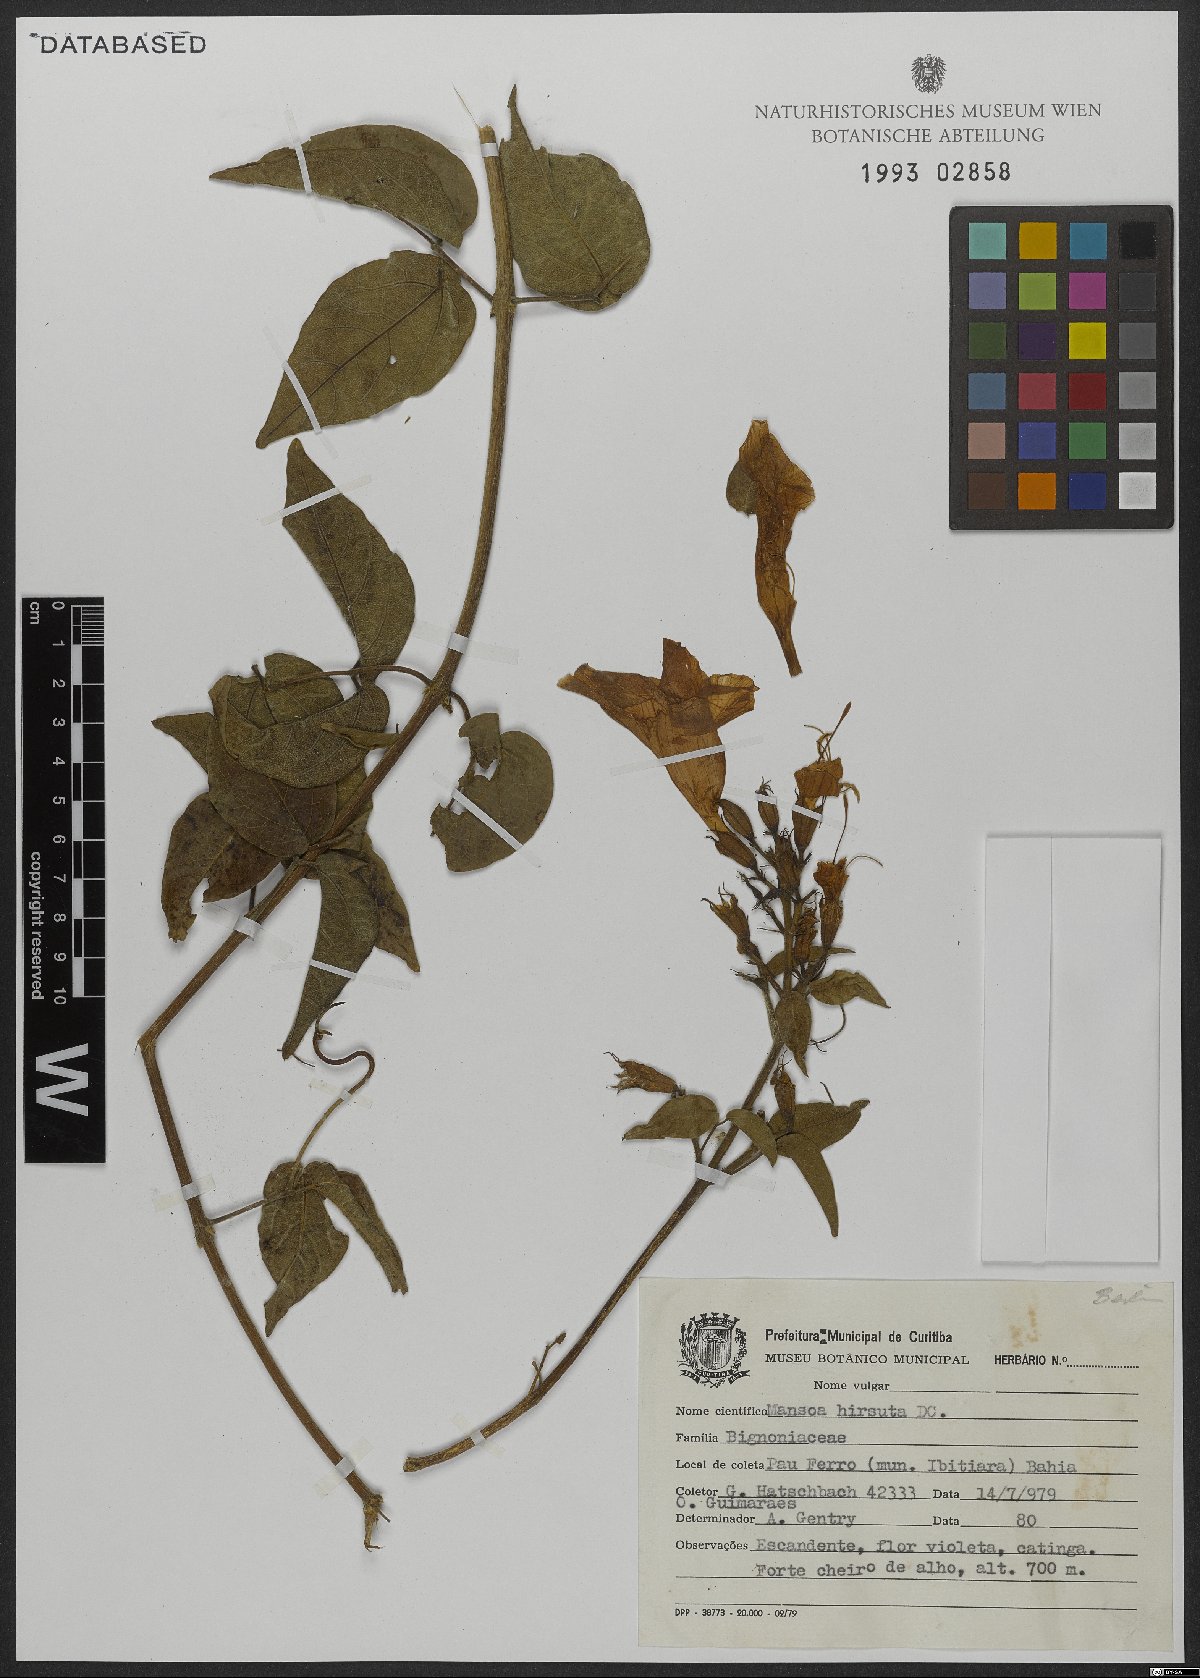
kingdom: Plantae
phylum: Tracheophyta
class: Magnoliopsida
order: Lamiales
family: Bignoniaceae
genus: Mansoa
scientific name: Mansoa hirsuta
